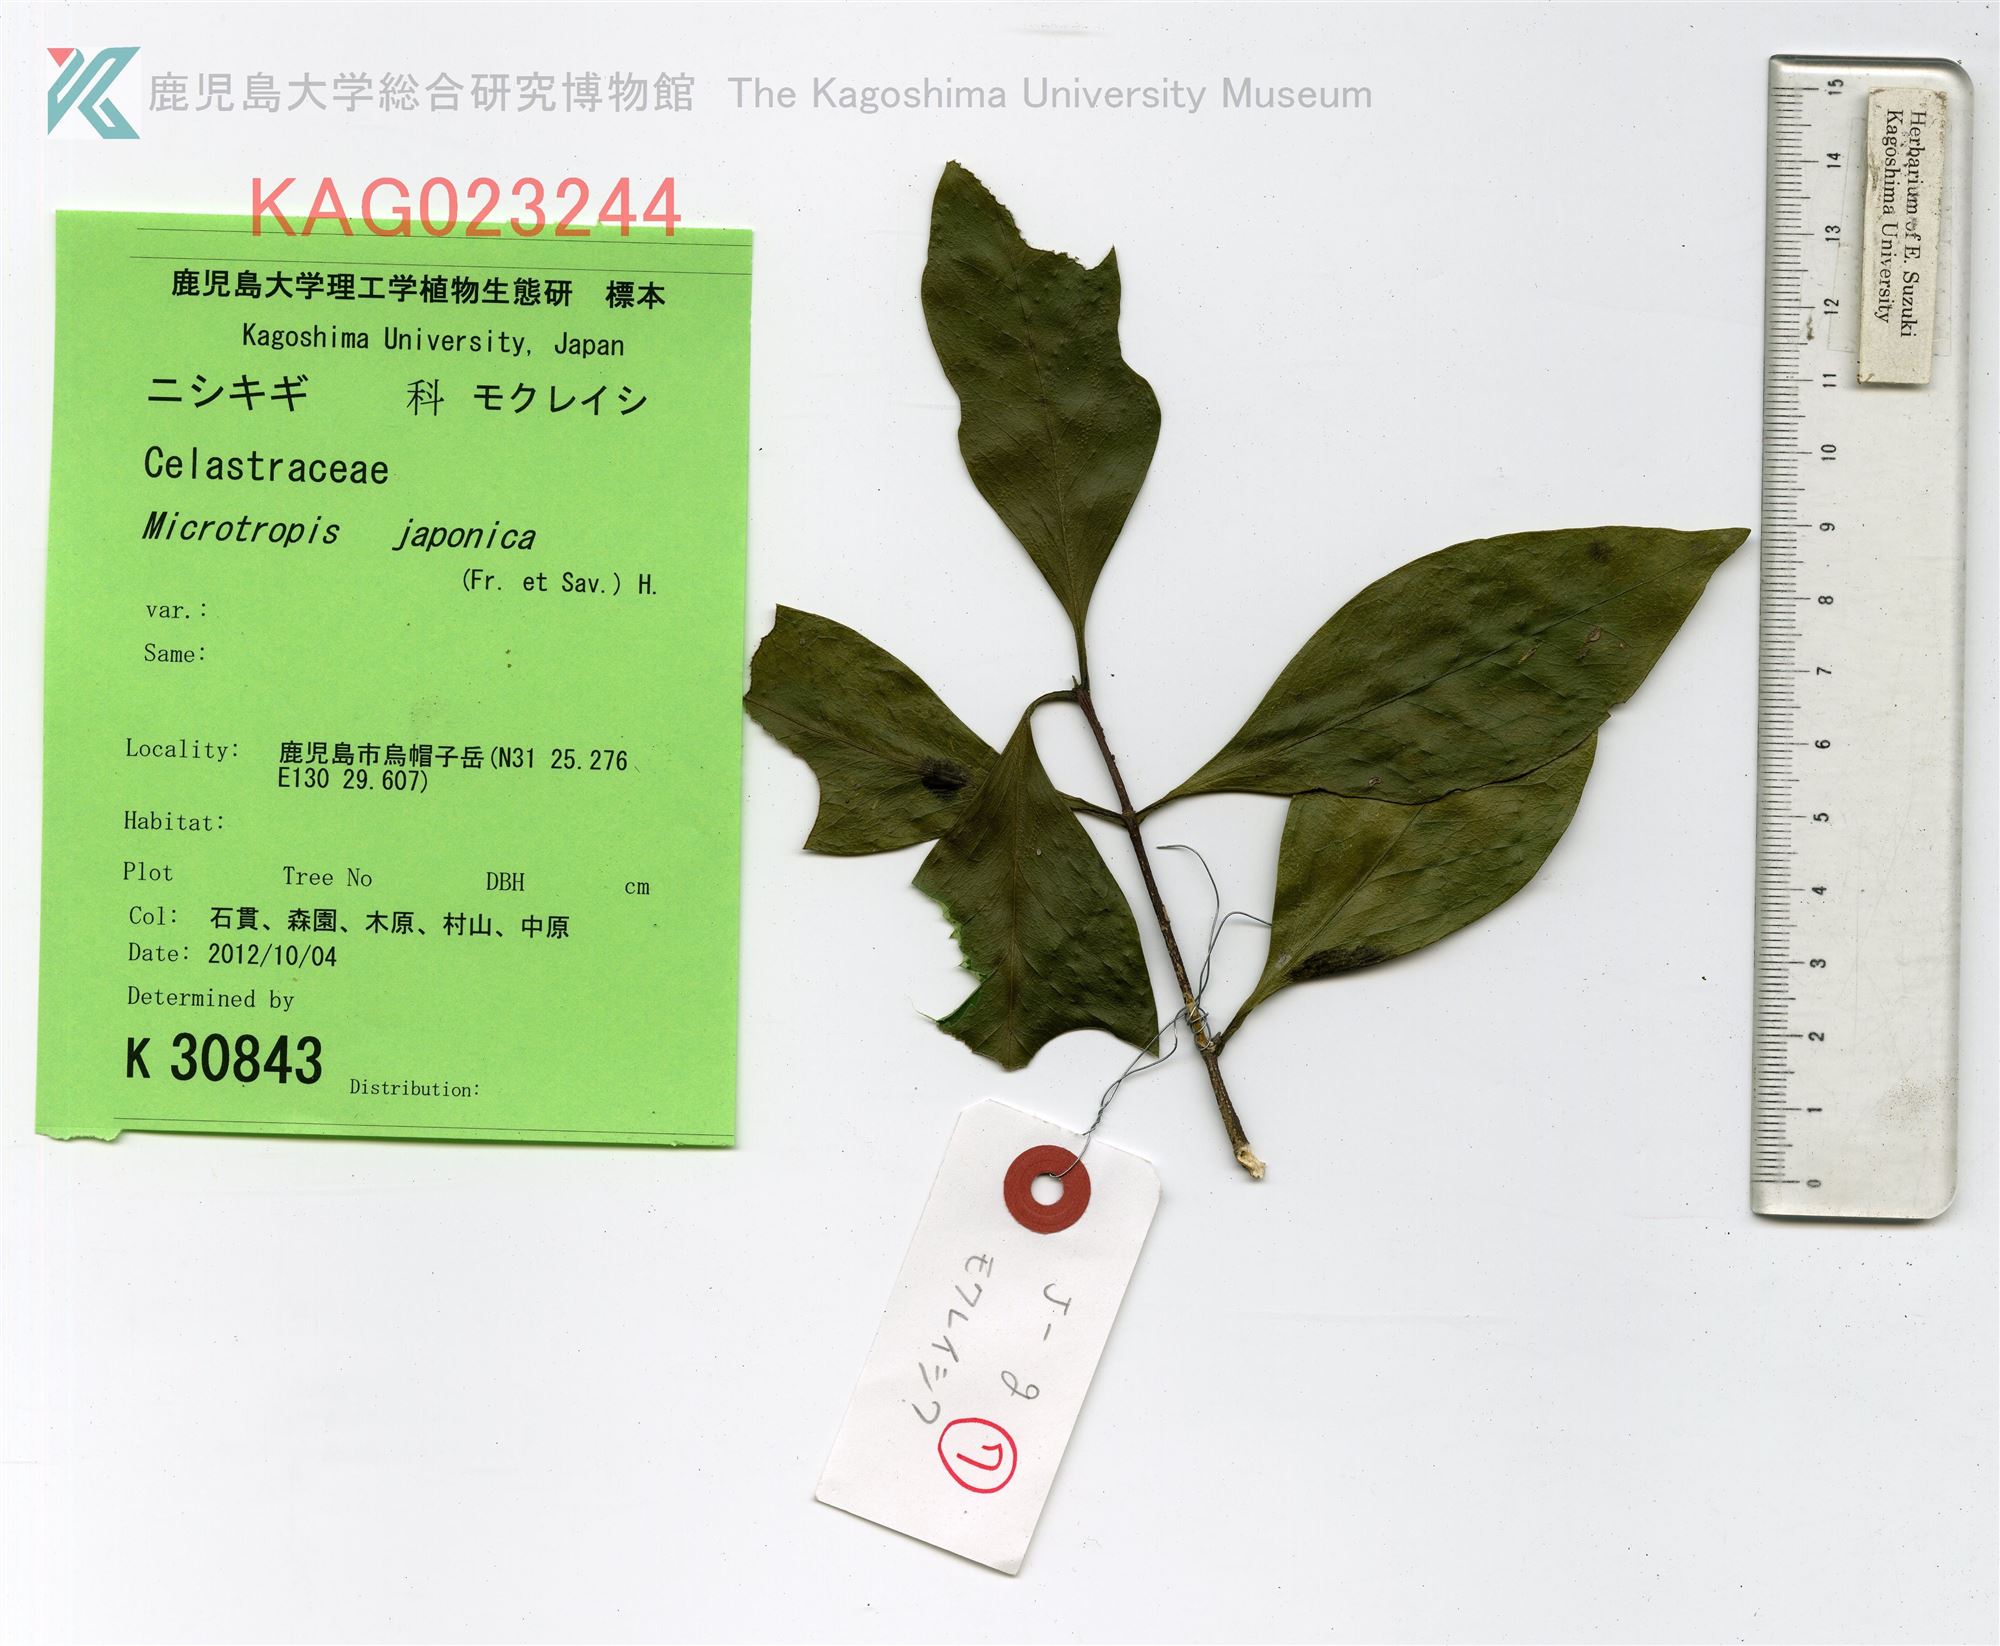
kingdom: Plantae
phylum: Tracheophyta
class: Magnoliopsida
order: Celastrales
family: Celastraceae
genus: Microtropis
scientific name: Microtropis japonica
